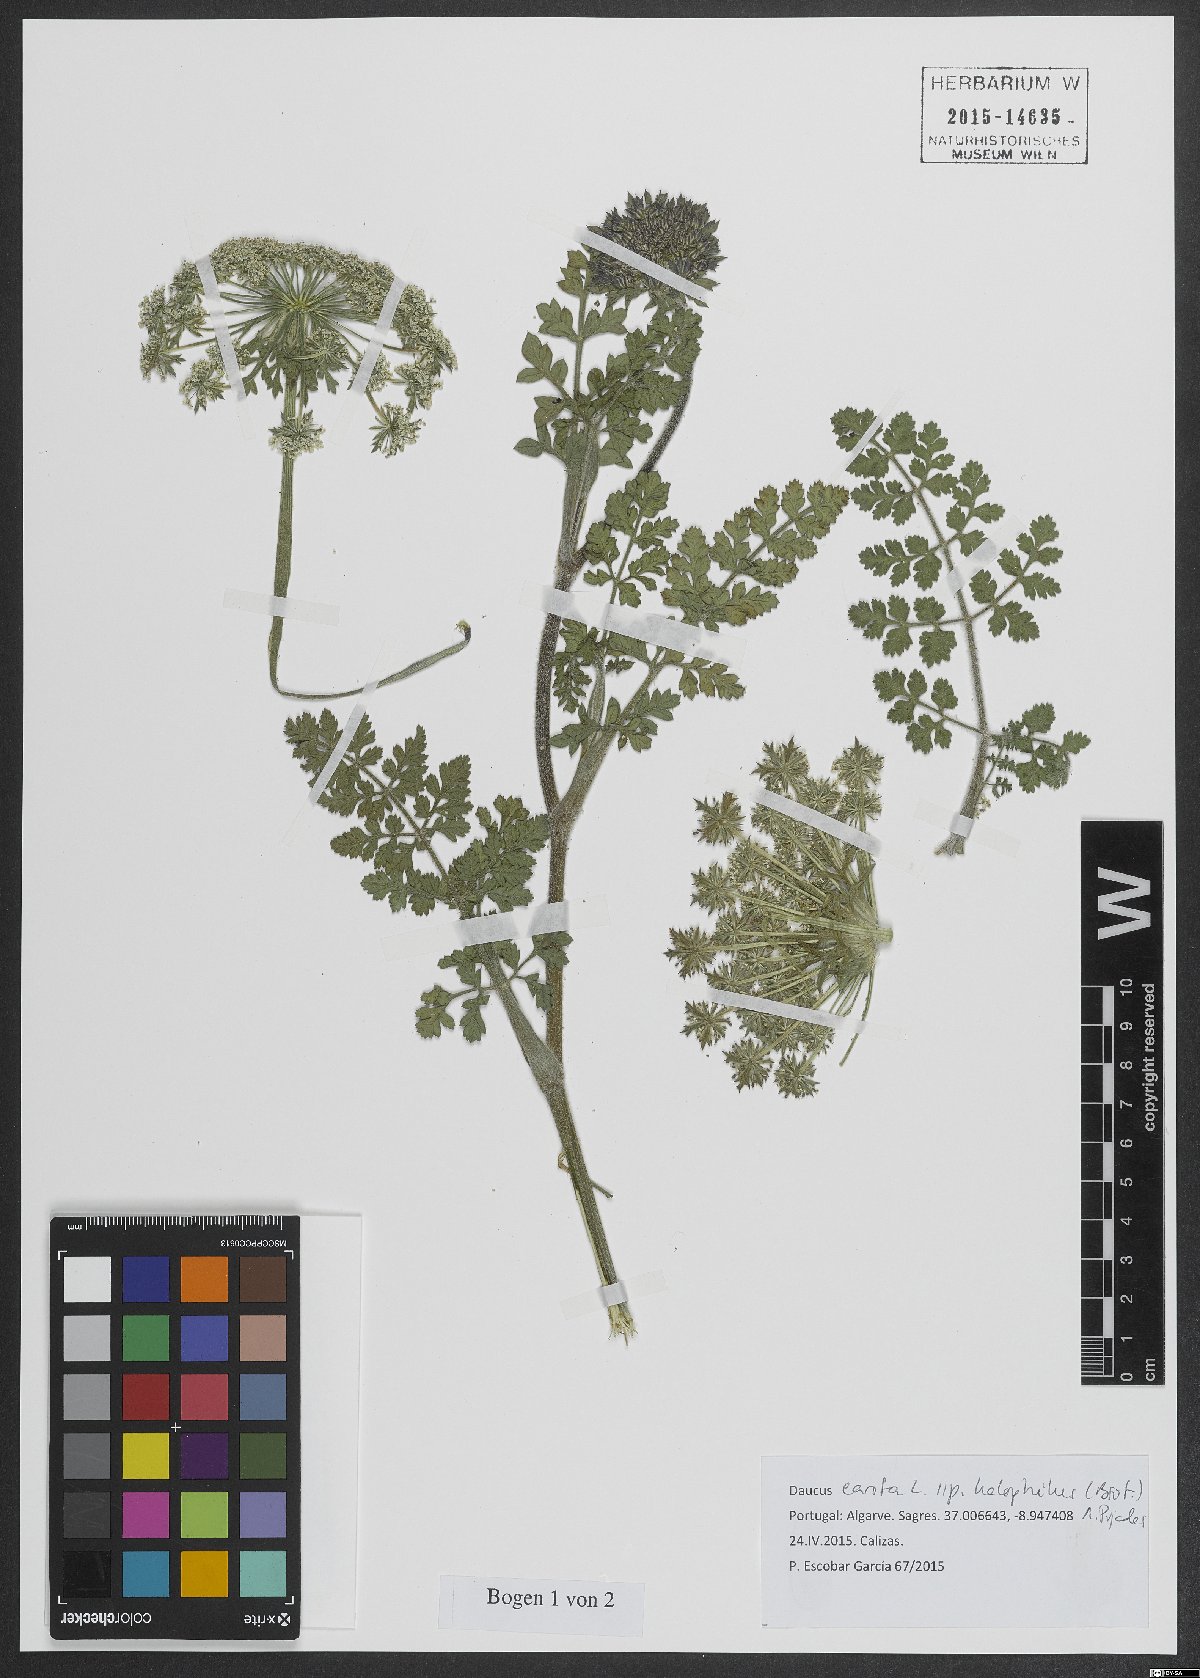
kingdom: Plantae
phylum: Tracheophyta
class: Magnoliopsida
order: Apiales
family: Apiaceae
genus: Daucus
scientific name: Daucus carota
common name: Wild carrot
